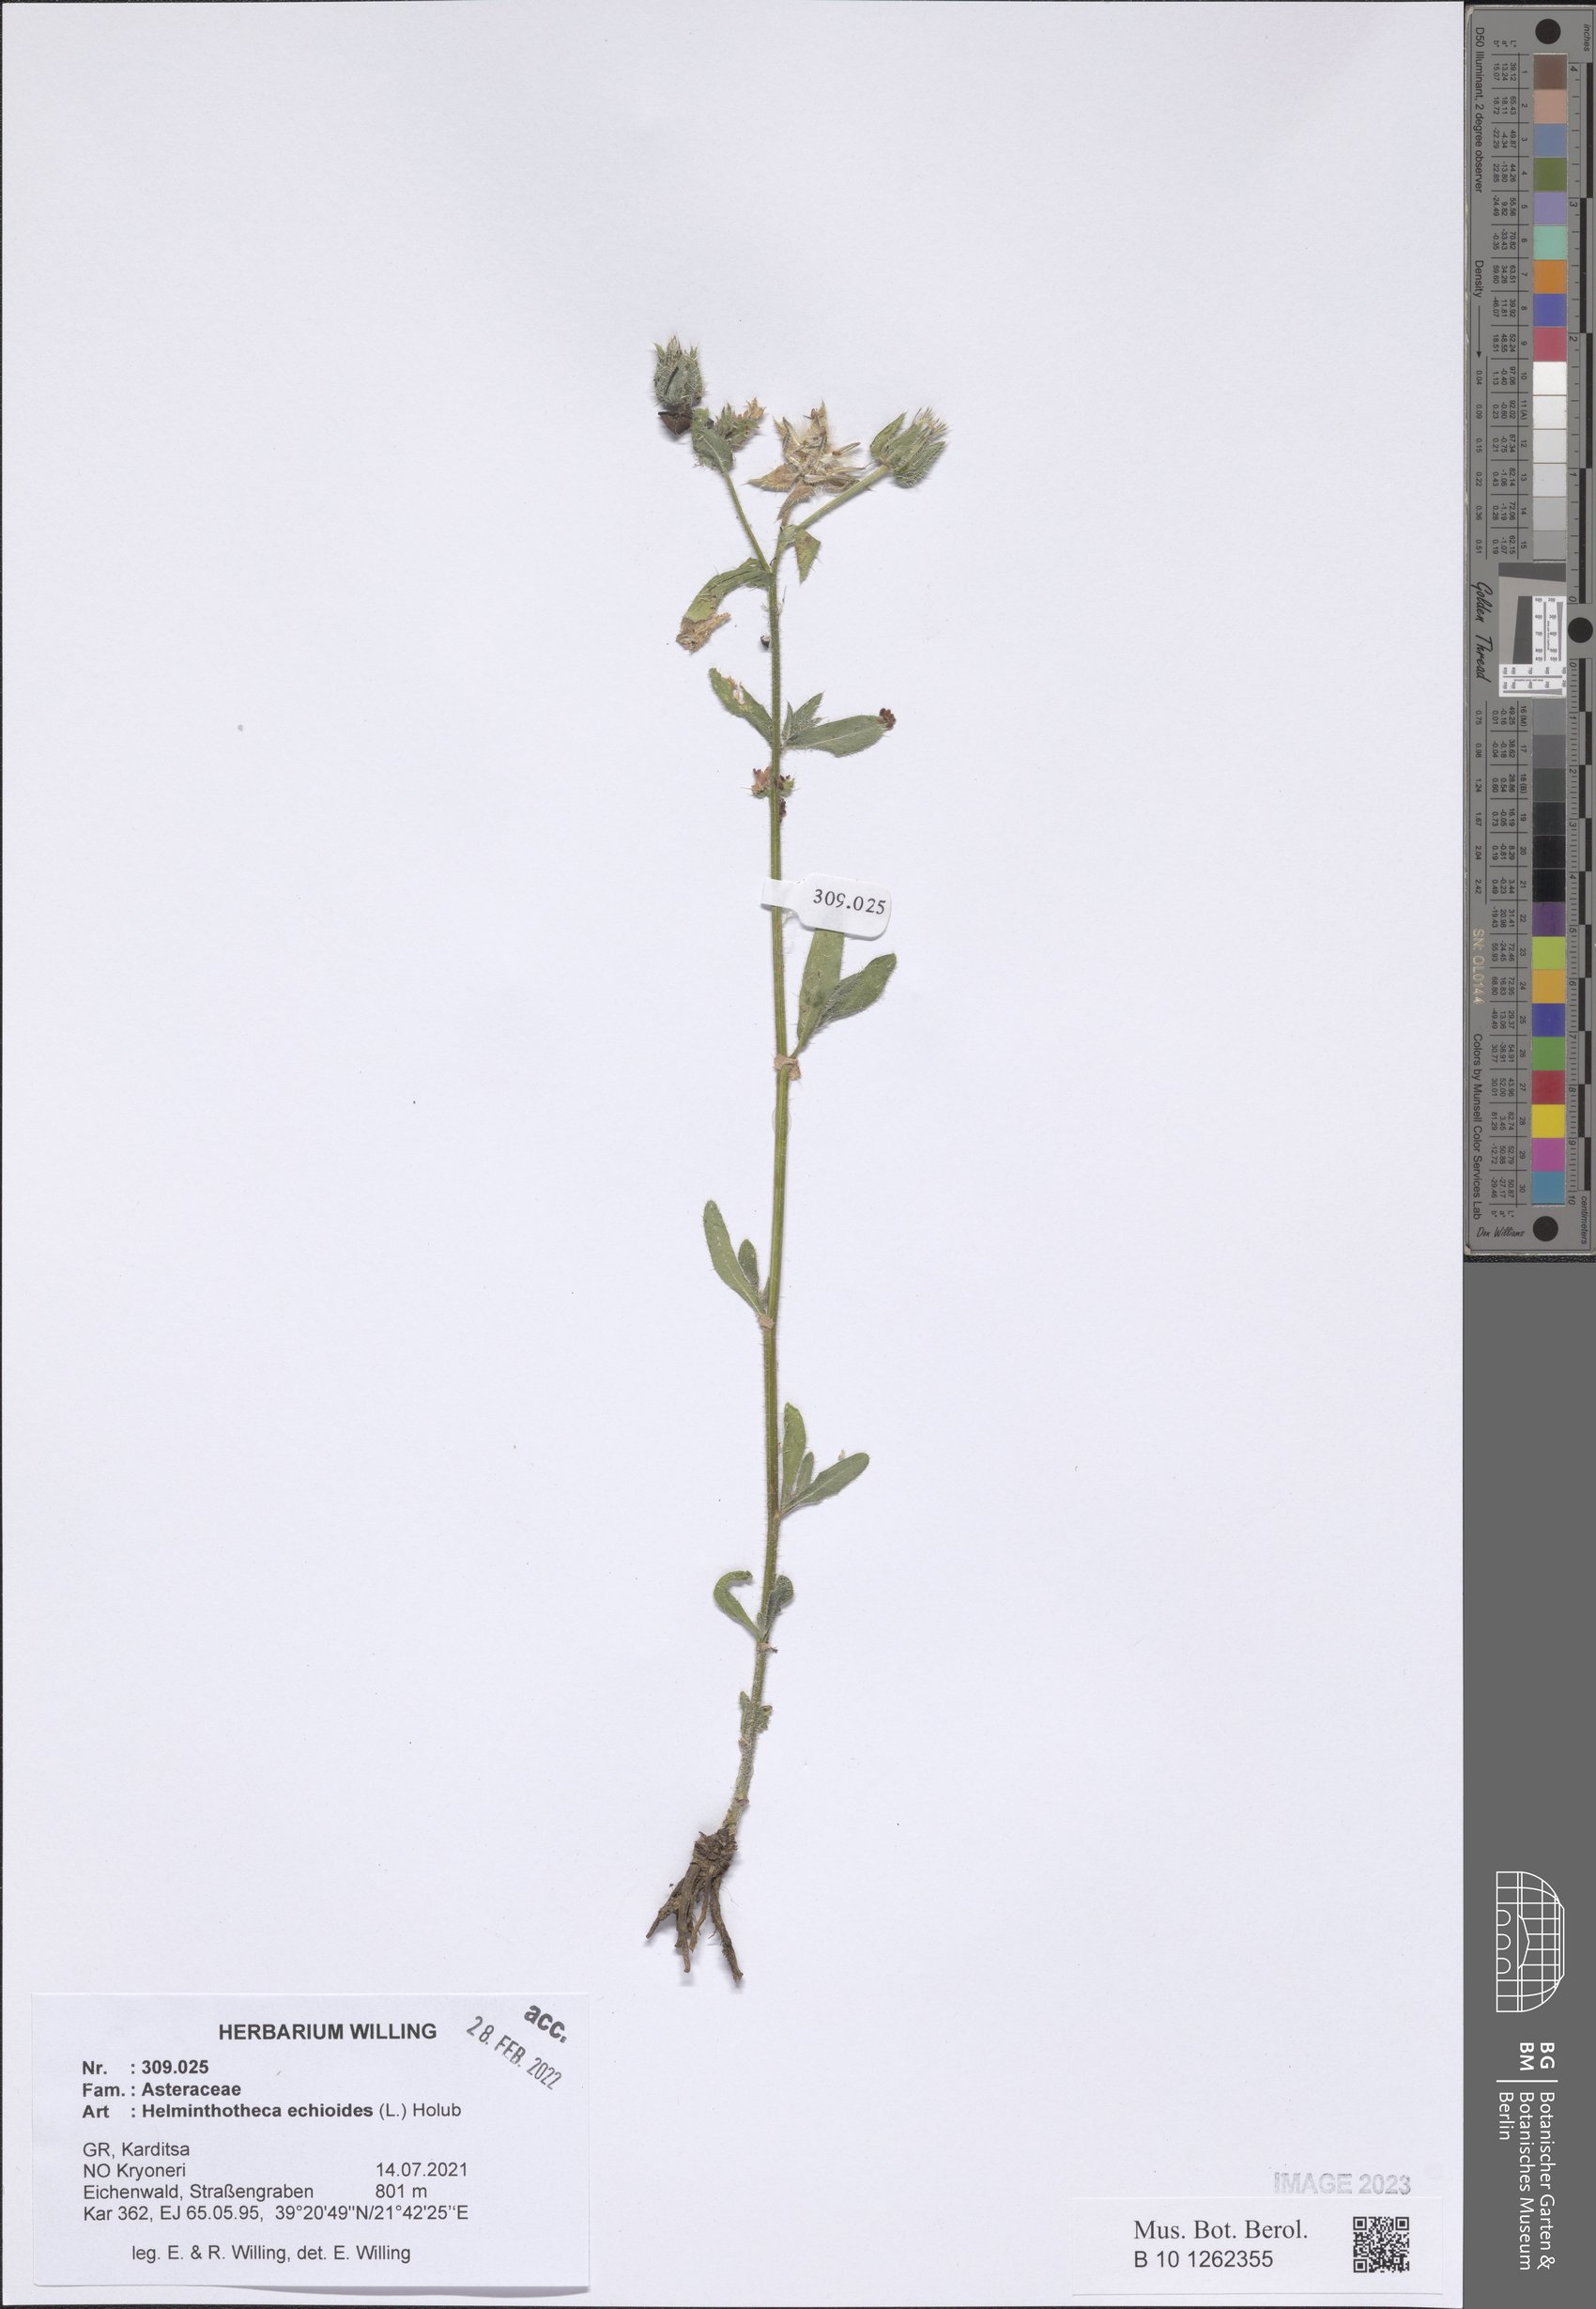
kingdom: Plantae
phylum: Tracheophyta
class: Magnoliopsida
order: Asterales
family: Asteraceae
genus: Helminthotheca
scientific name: Helminthotheca echioides
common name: Ox-tongue
